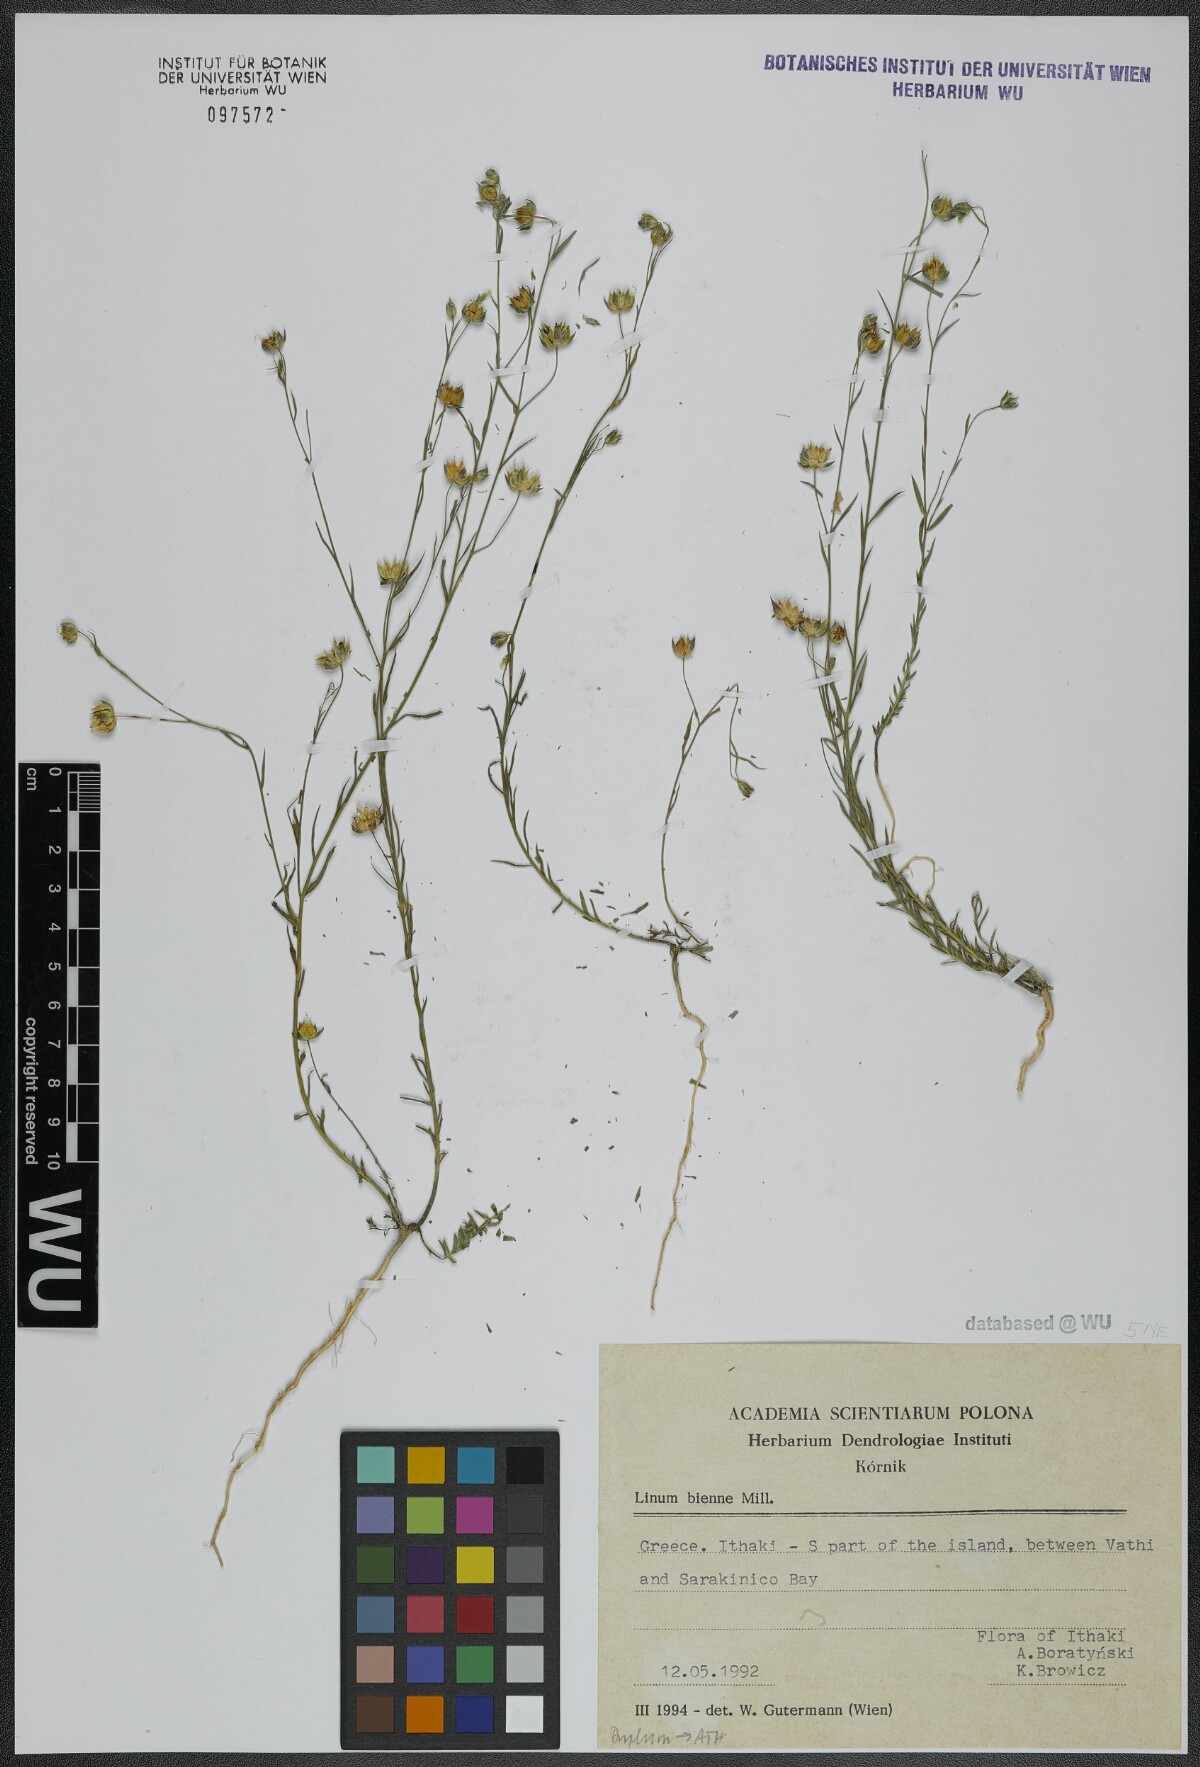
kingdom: Plantae
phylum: Tracheophyta
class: Magnoliopsida
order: Malpighiales
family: Linaceae
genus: Linum
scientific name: Linum bienne
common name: Pale flax
